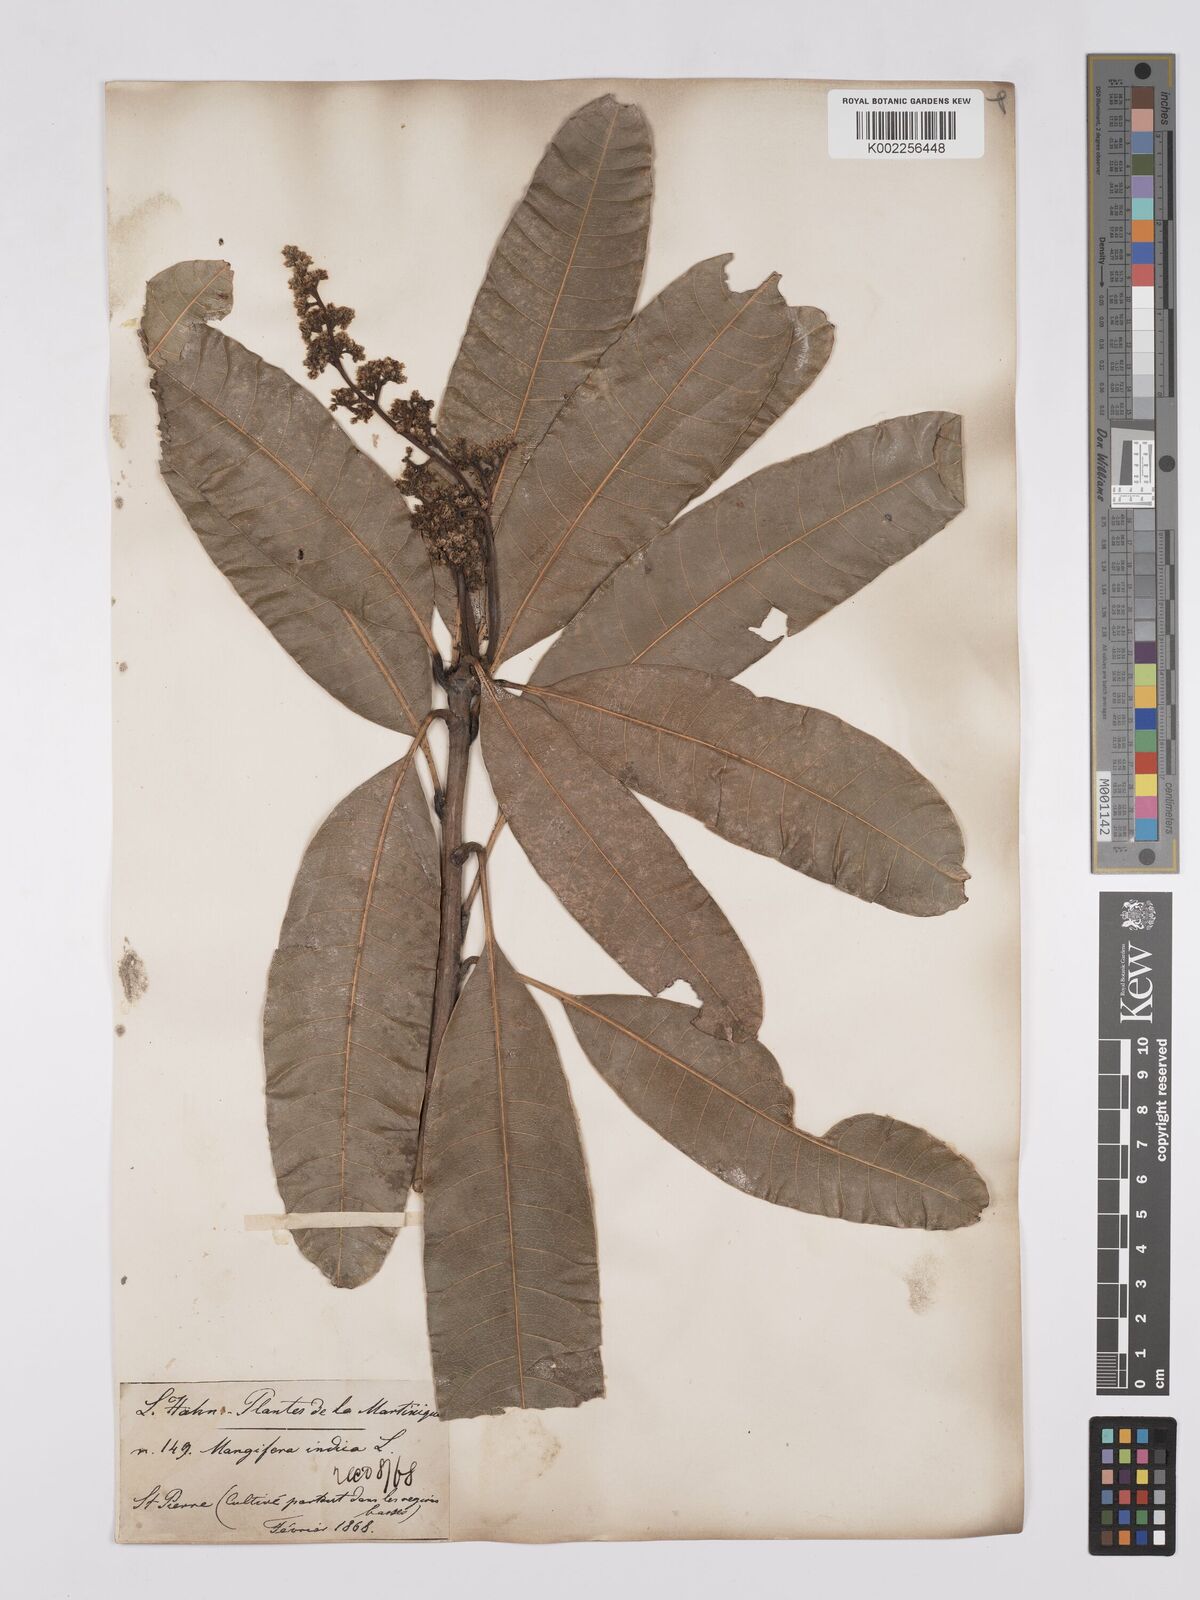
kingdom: Plantae
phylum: Tracheophyta
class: Magnoliopsida
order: Sapindales
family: Anacardiaceae
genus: Mangifera
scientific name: Mangifera indica
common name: Mango
